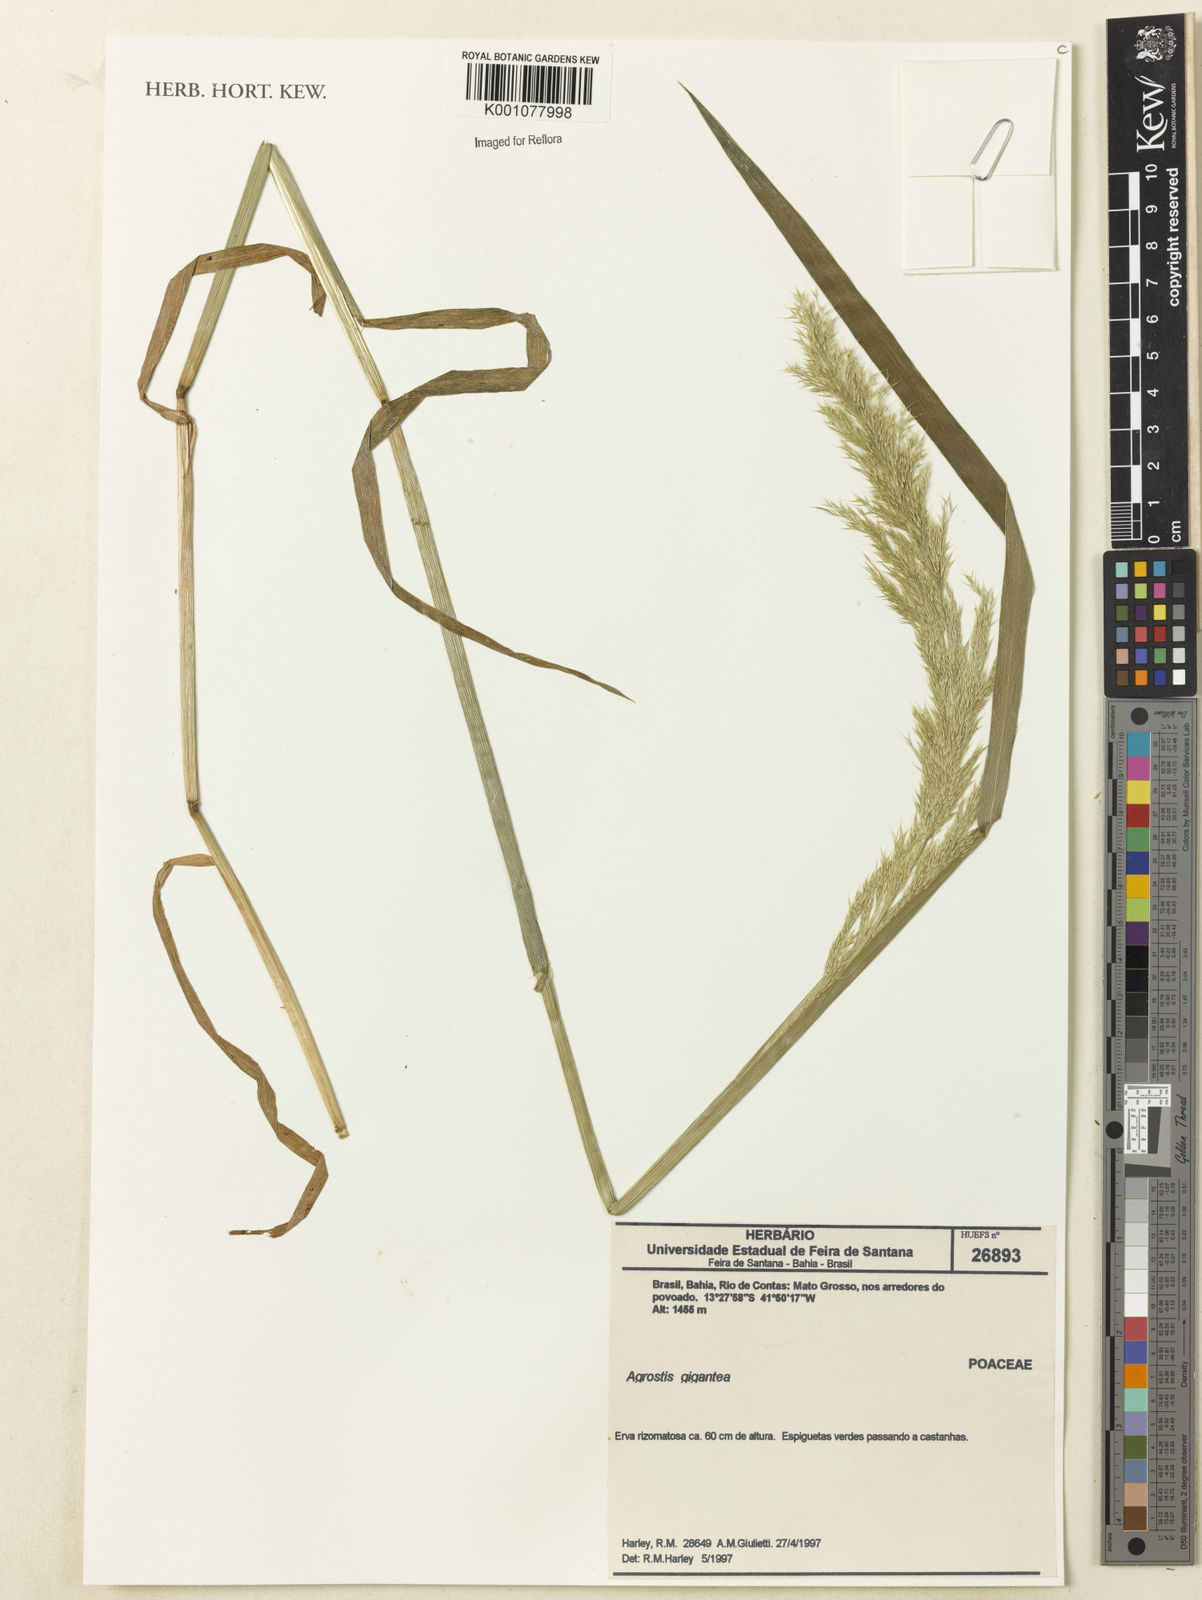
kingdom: Plantae
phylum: Tracheophyta
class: Liliopsida
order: Poales
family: Poaceae
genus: Agrostis
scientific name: Agrostis gigantea
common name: Black bent
